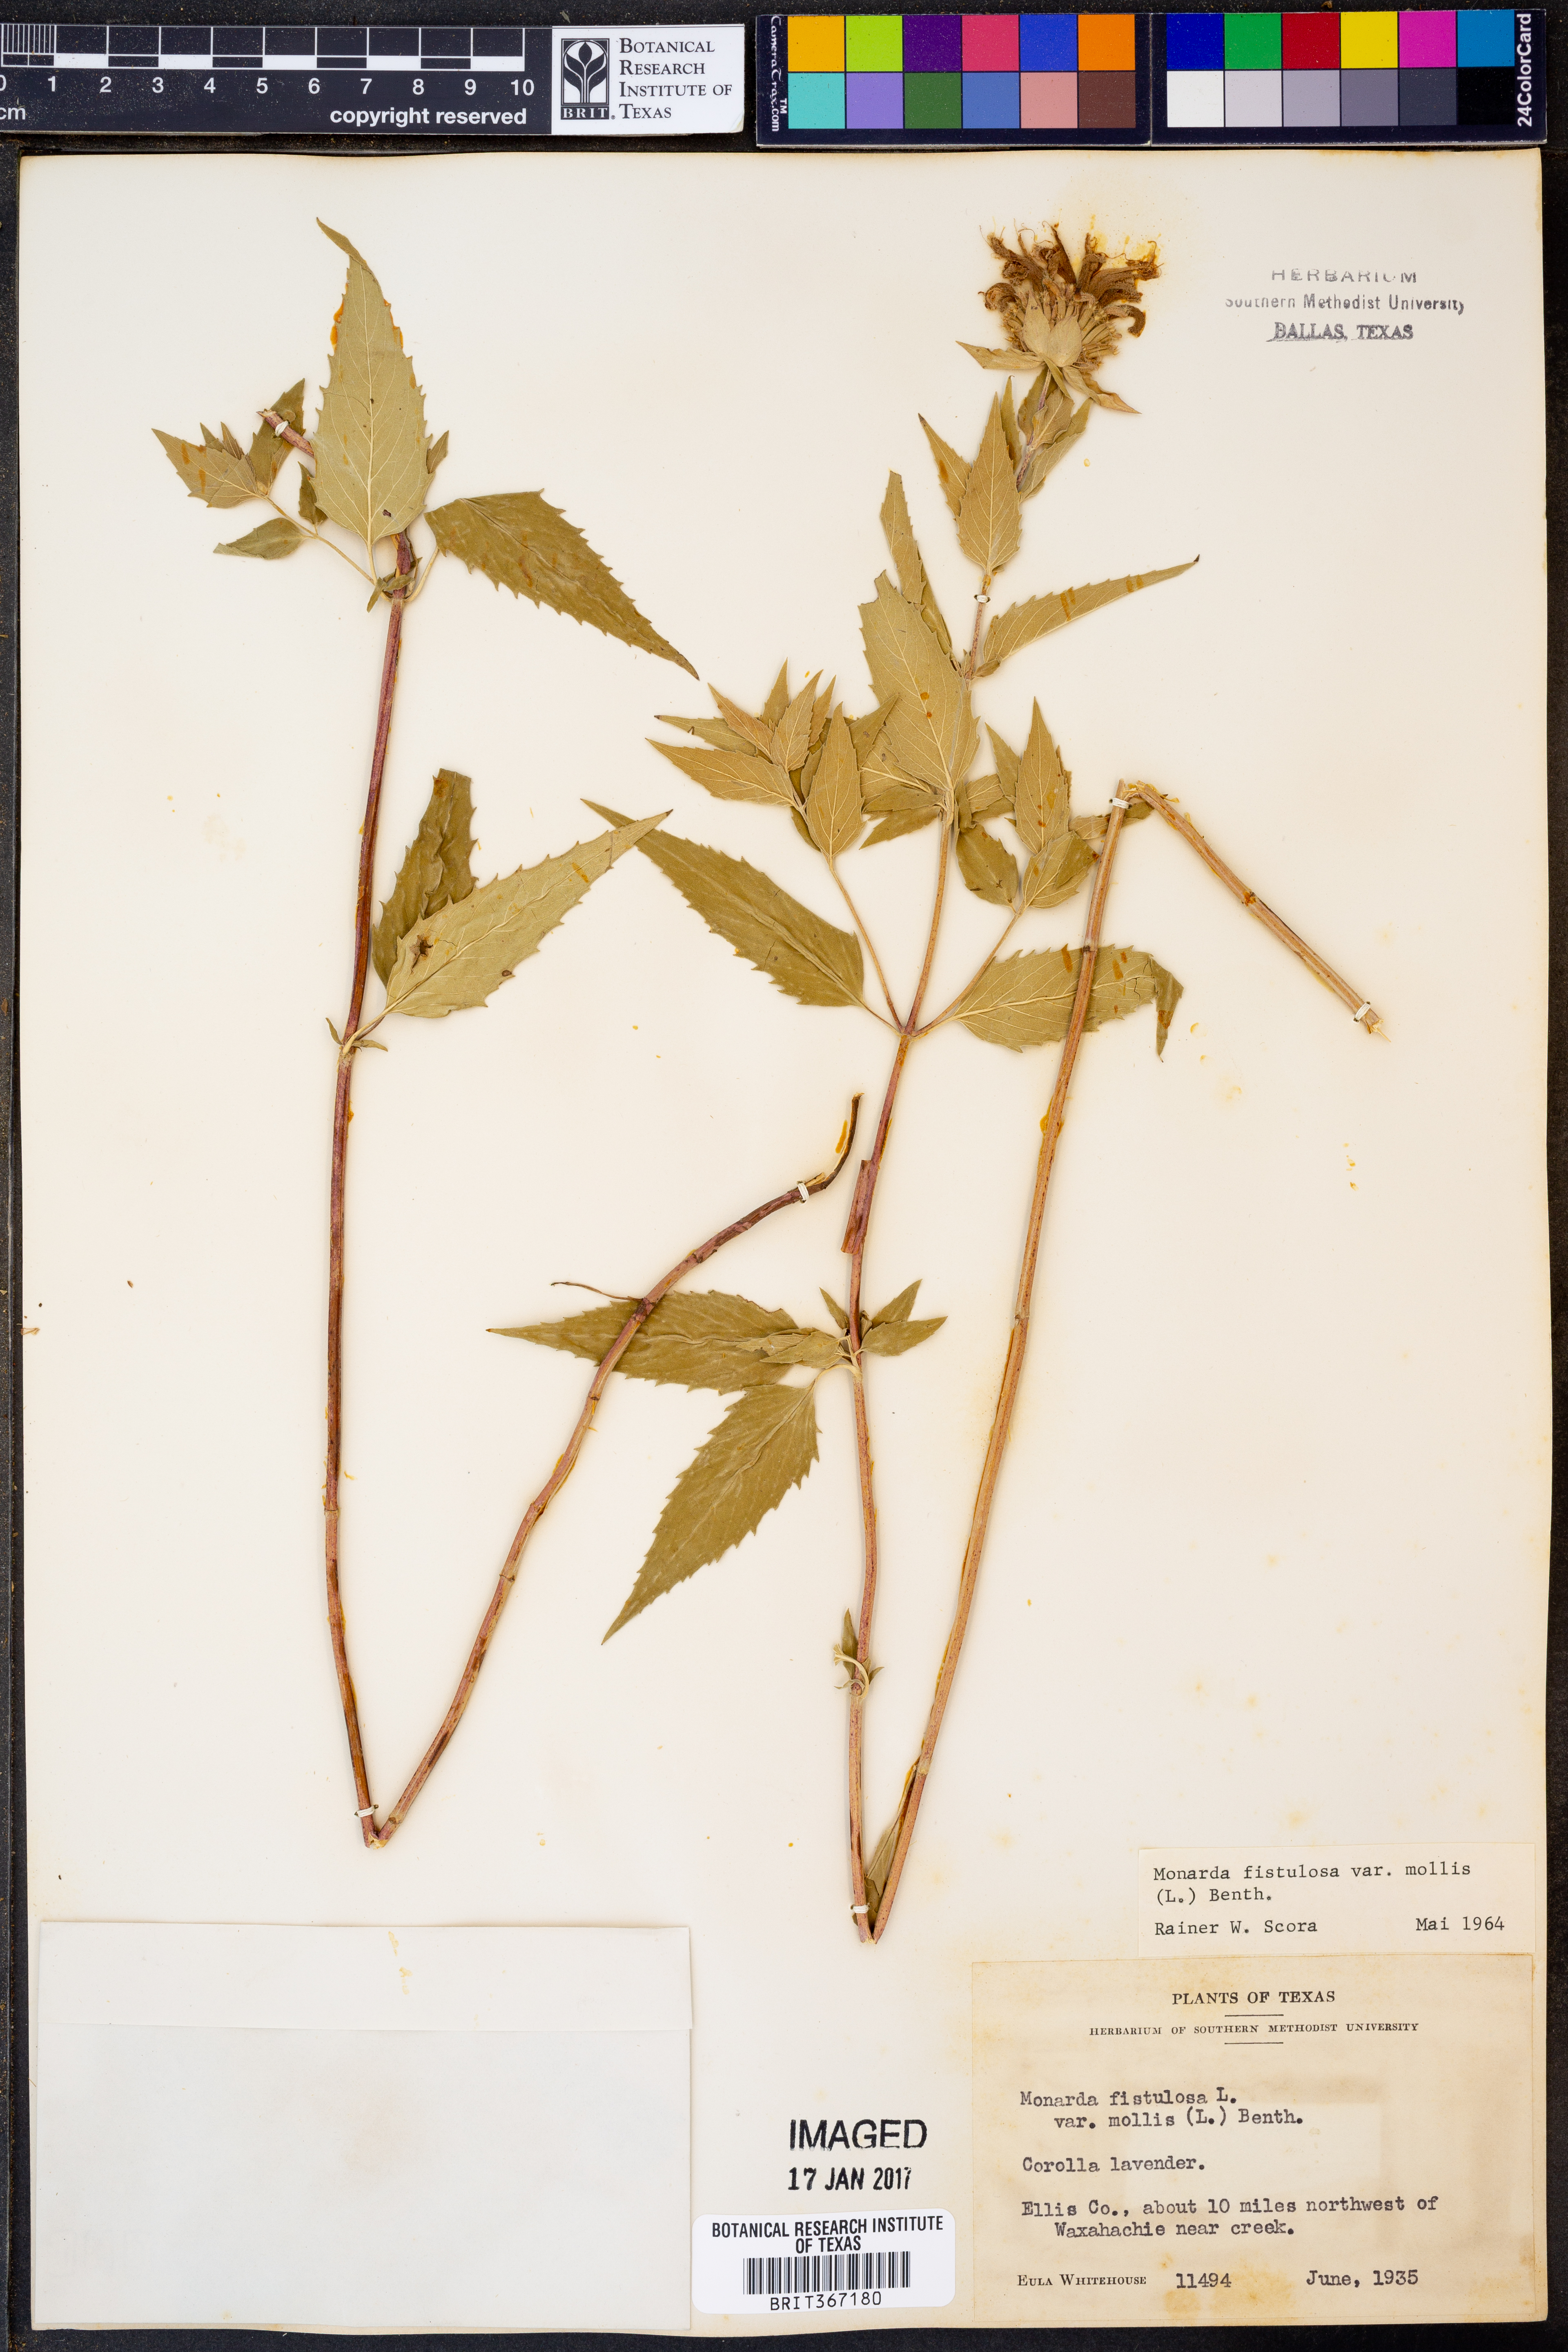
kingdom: Plantae
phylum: Tracheophyta
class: Magnoliopsida
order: Lamiales
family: Lamiaceae
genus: Monarda
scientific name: Monarda fistulosa
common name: Purple beebalm
